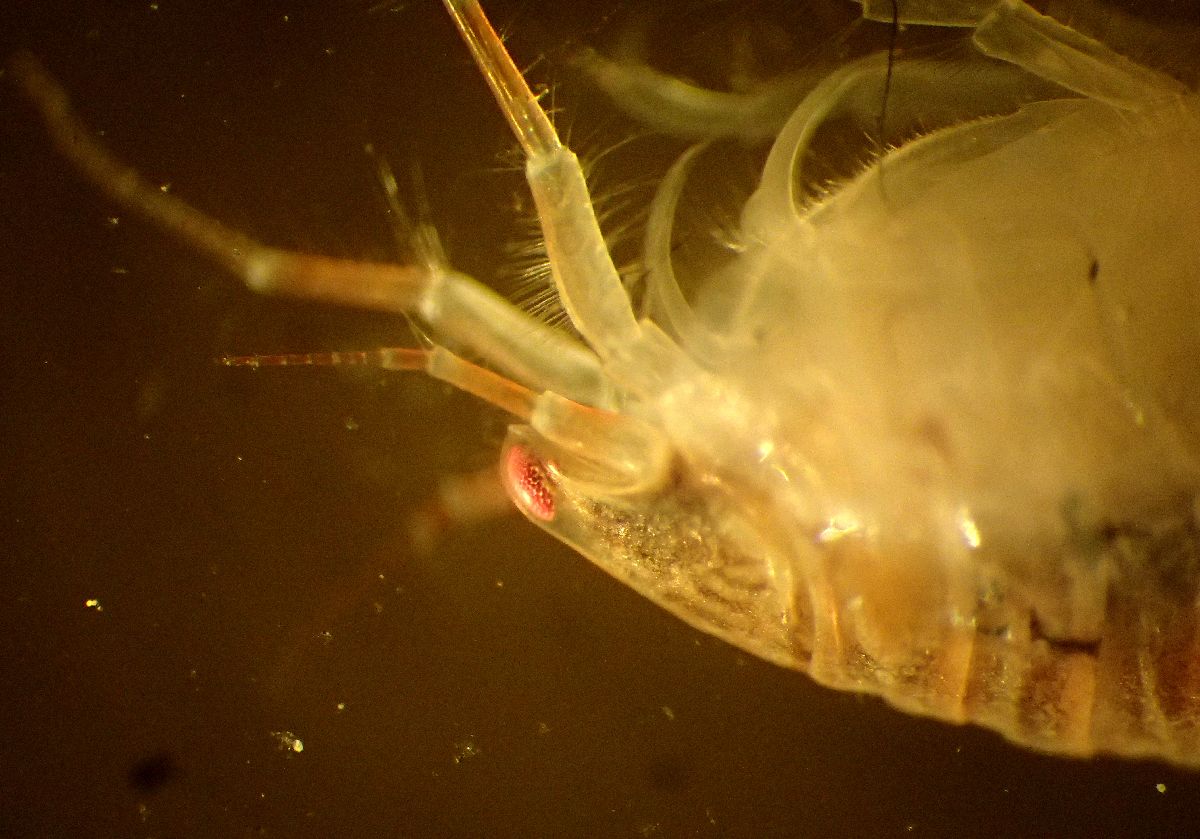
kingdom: Animalia
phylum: Arthropoda
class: Malacostraca
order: Amphipoda
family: Oedicerotidae
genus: Paroediceros
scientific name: Paroediceros lynceus
